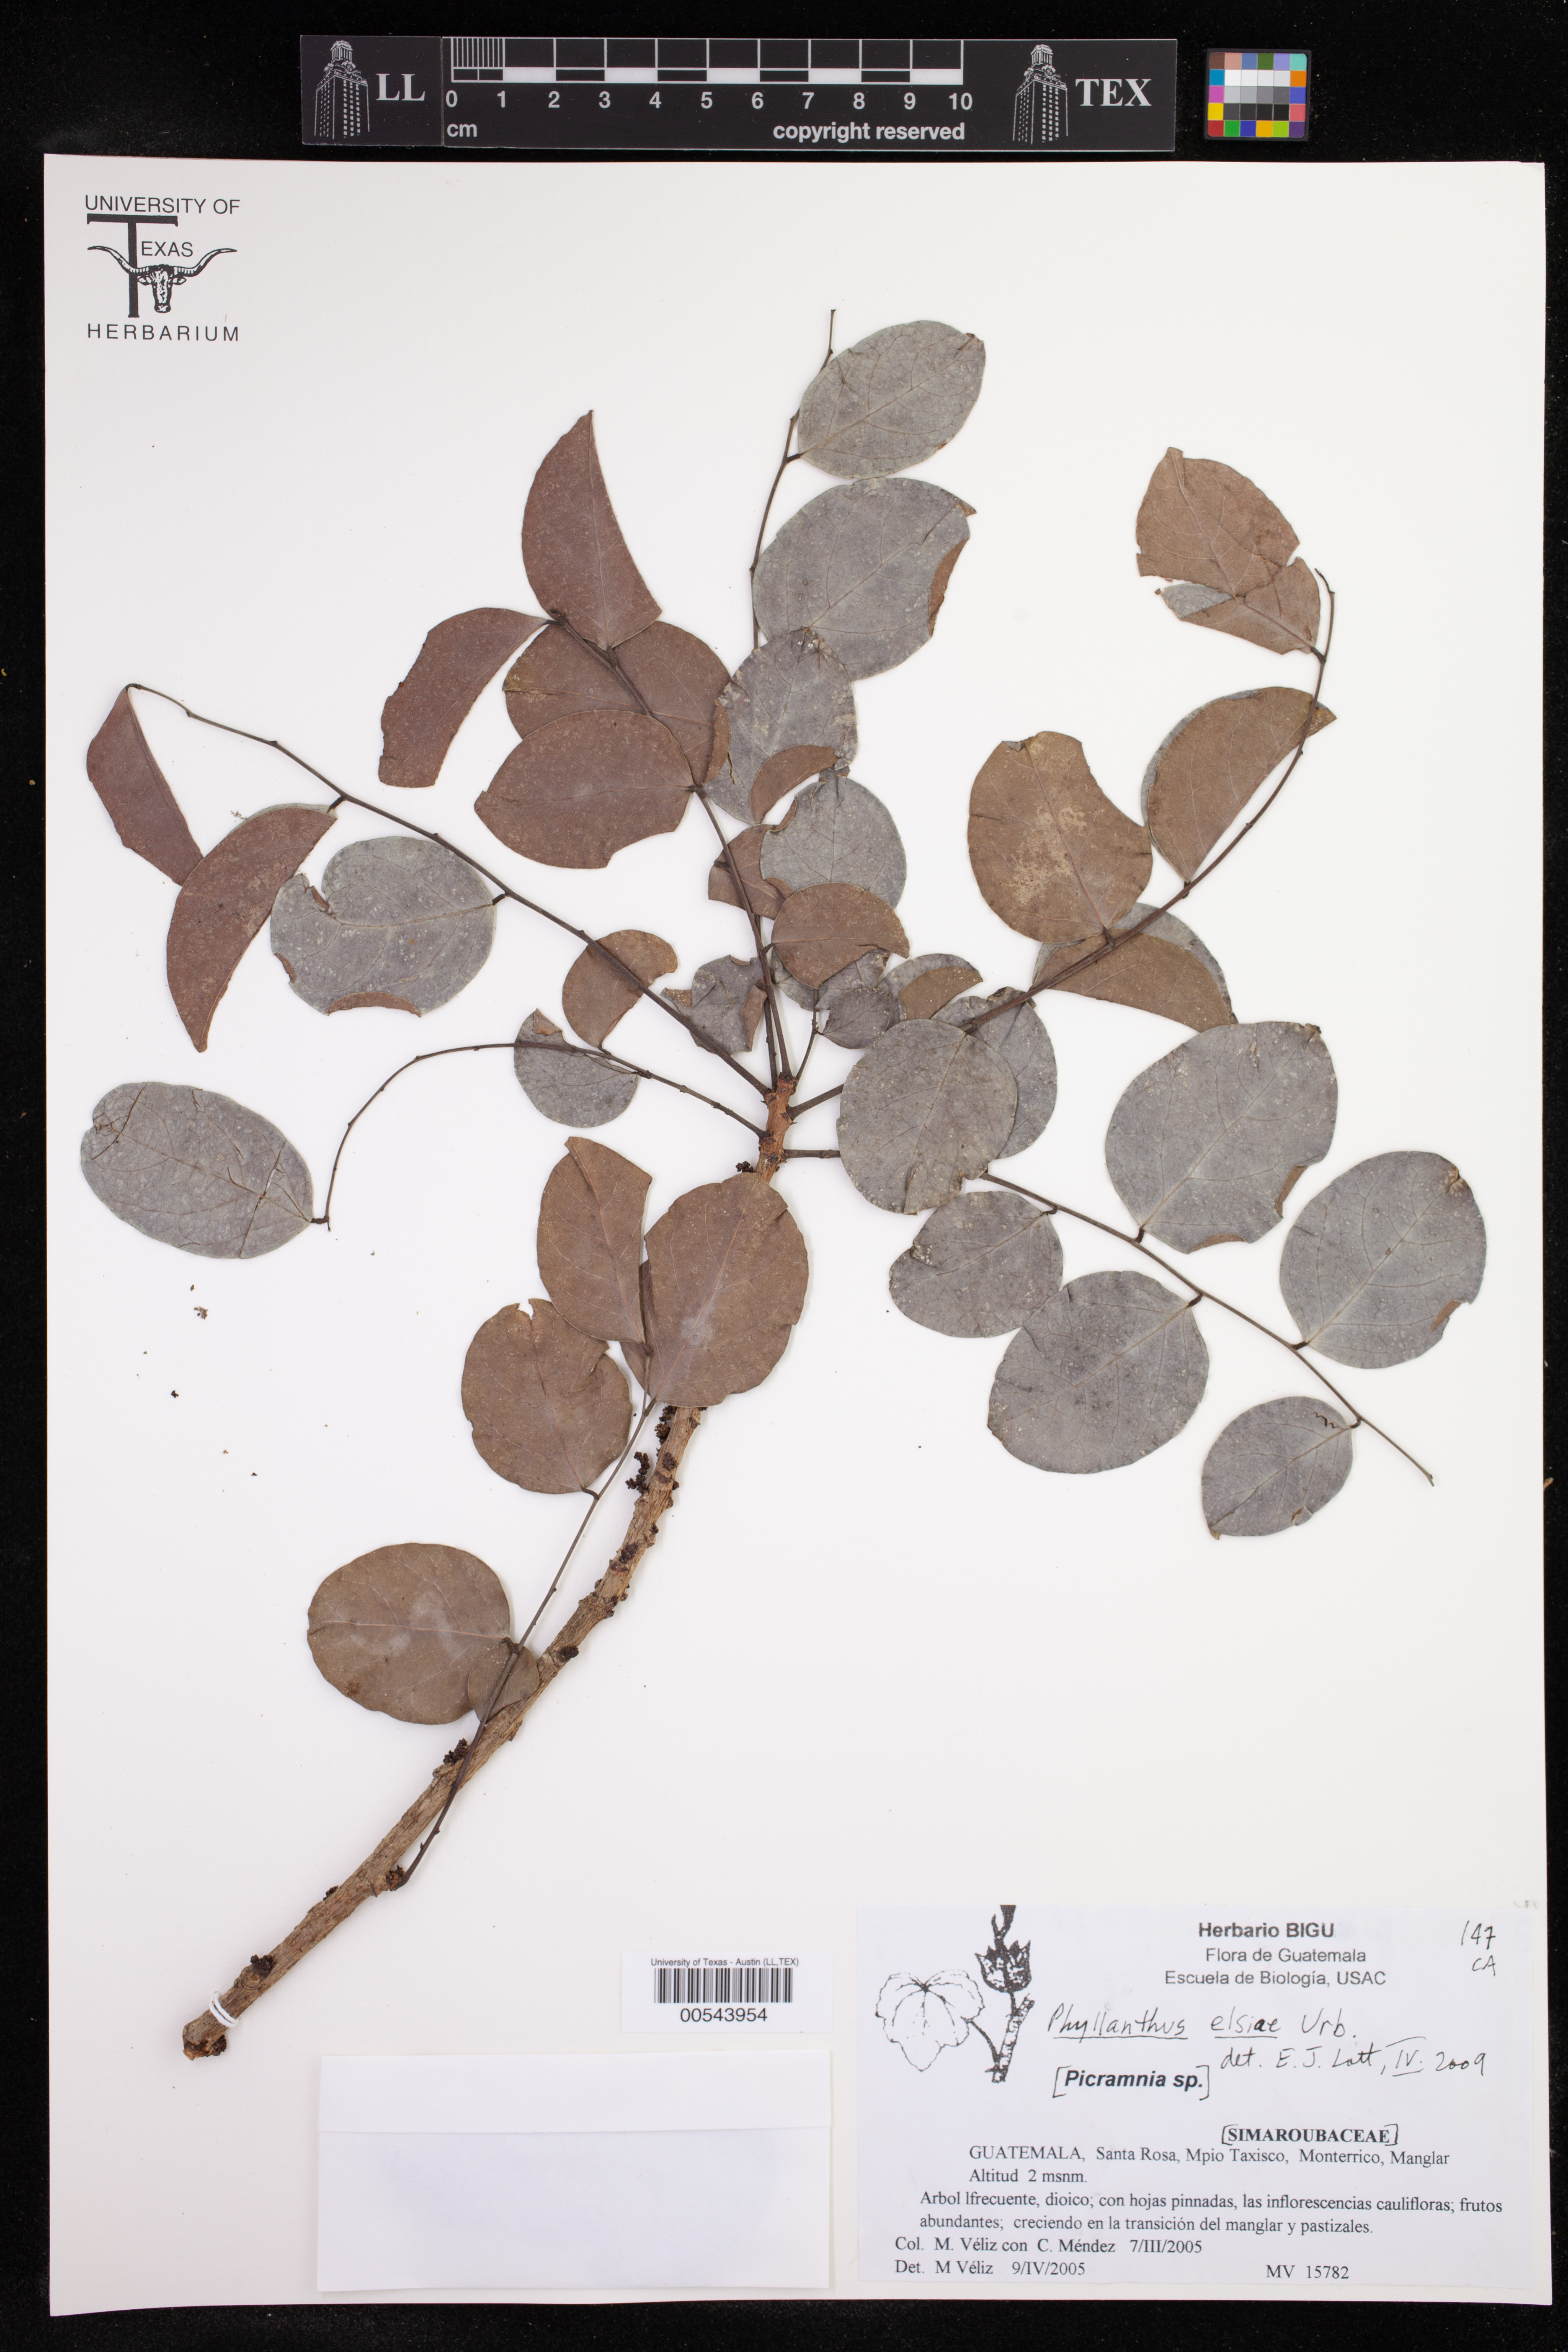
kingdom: Plantae
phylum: Tracheophyta
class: Magnoliopsida
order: Malpighiales
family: Phyllanthaceae
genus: Phyllanthus
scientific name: Phyllanthus elsiae
